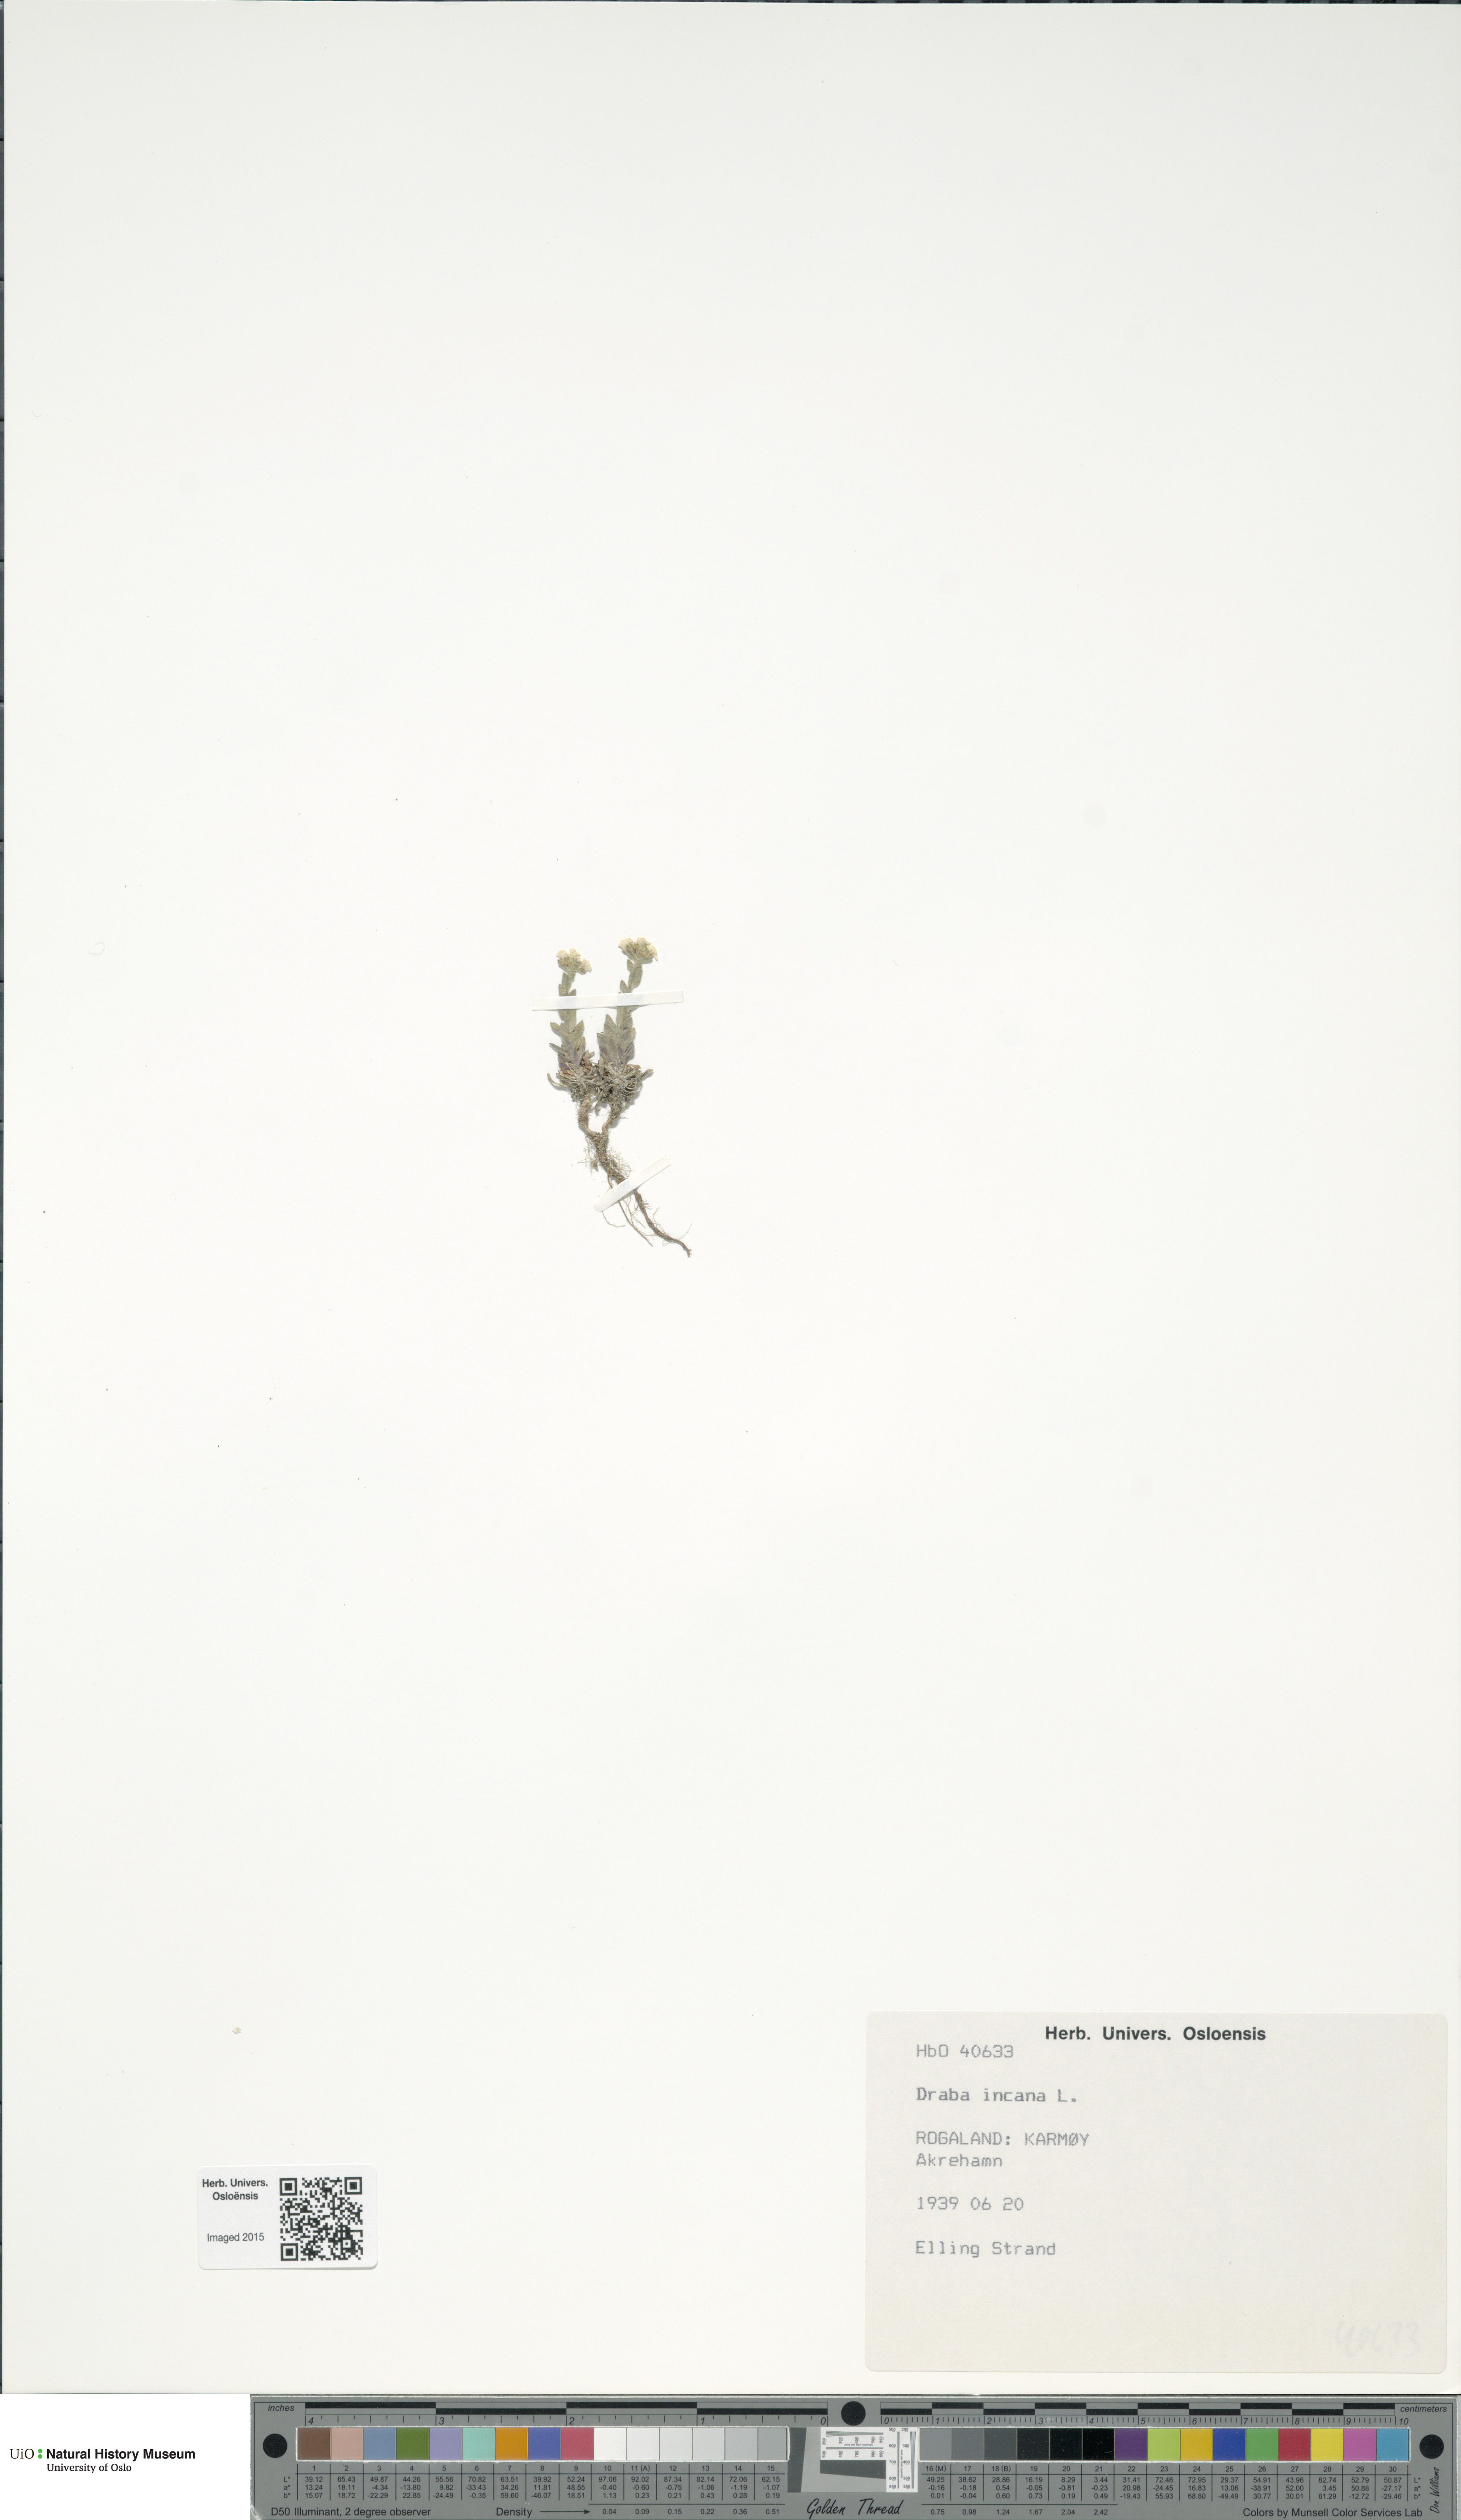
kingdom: Plantae
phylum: Tracheophyta
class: Magnoliopsida
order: Brassicales
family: Brassicaceae
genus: Draba
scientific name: Draba incana
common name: Hoary whitlow-grass
